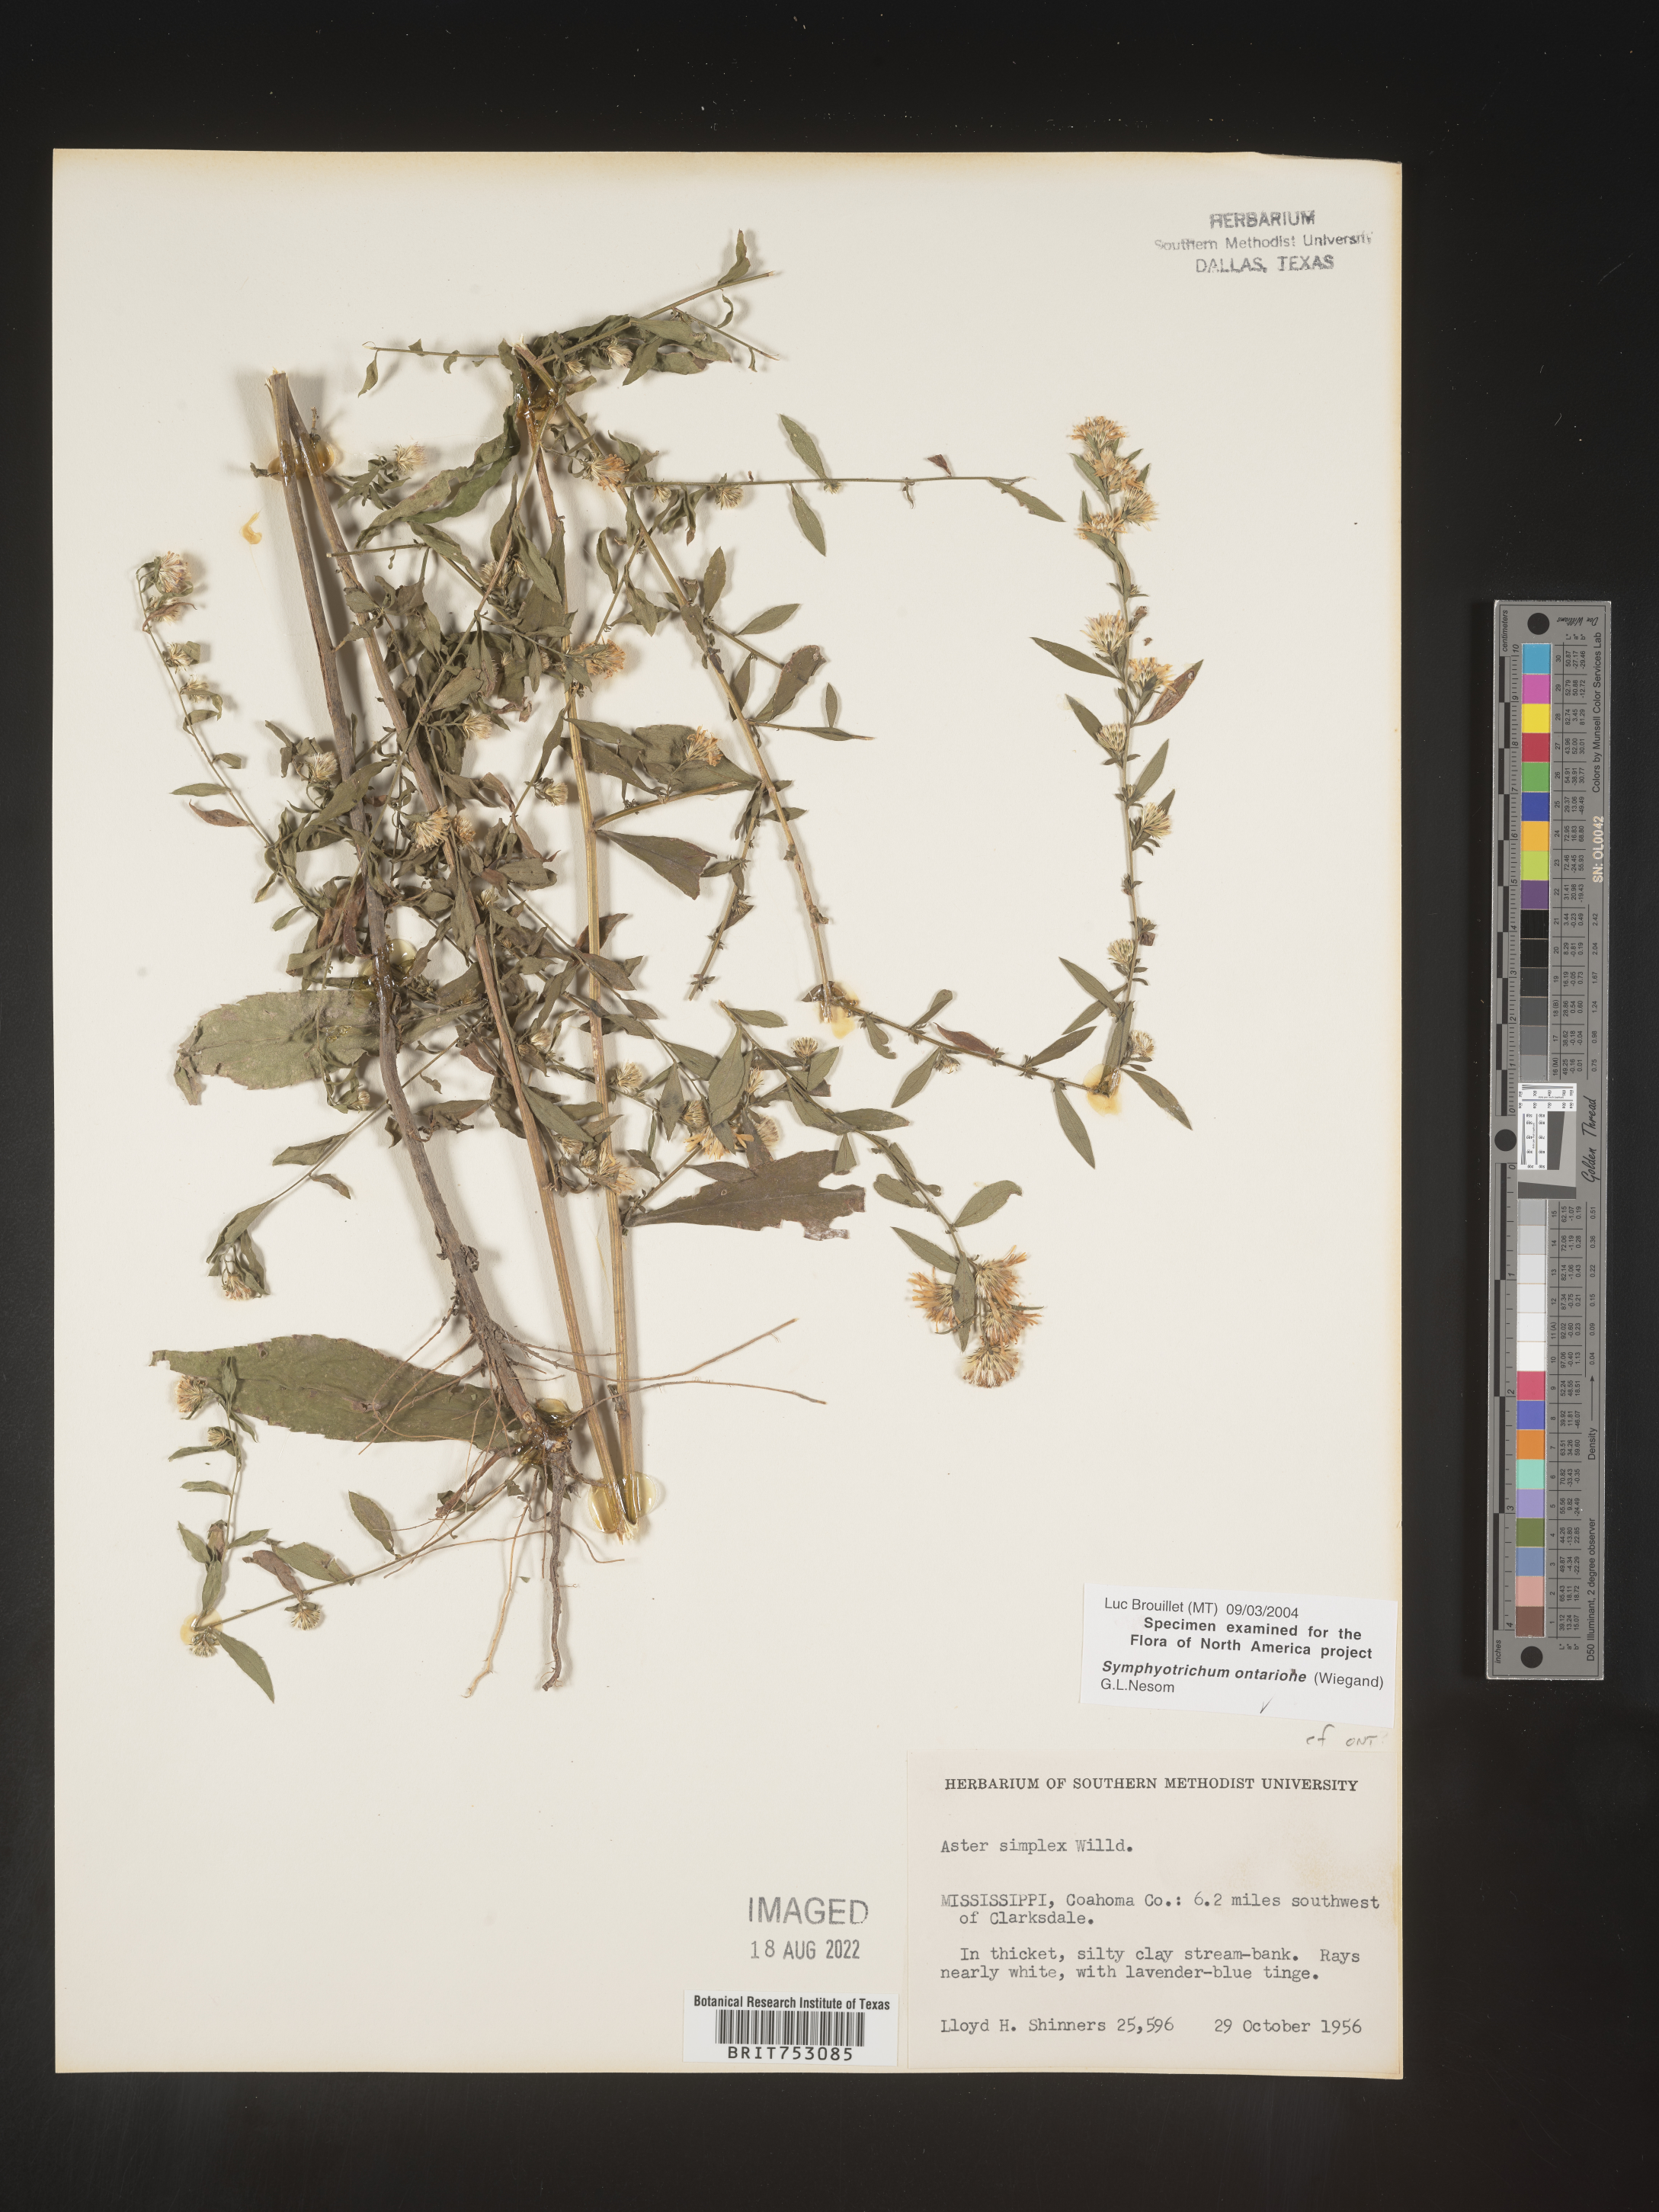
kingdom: Plantae
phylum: Tracheophyta
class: Magnoliopsida
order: Asterales
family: Asteraceae
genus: Symphyotrichum
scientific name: Symphyotrichum ontarionis
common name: Bottomland aster
